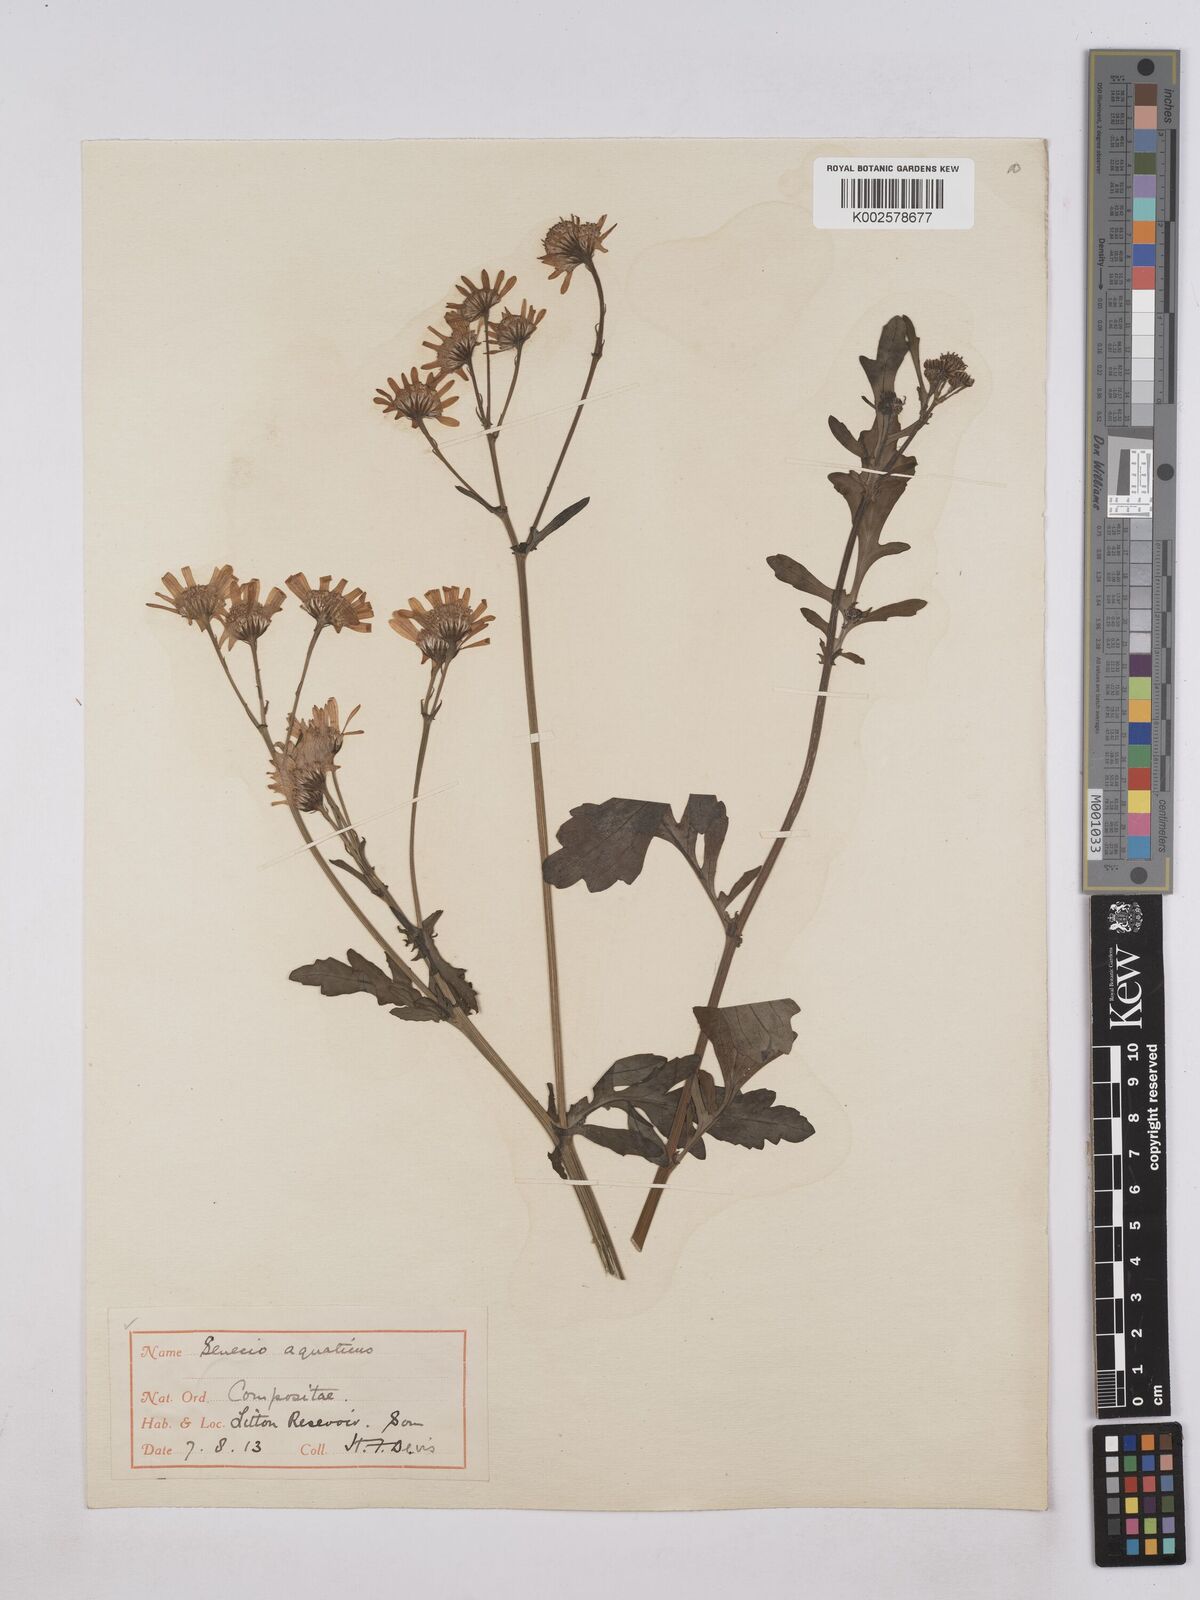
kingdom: Plantae
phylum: Tracheophyta
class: Magnoliopsida
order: Asterales
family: Asteraceae
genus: Jacobaea
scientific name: Jacobaea aquatica
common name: Water ragwort
